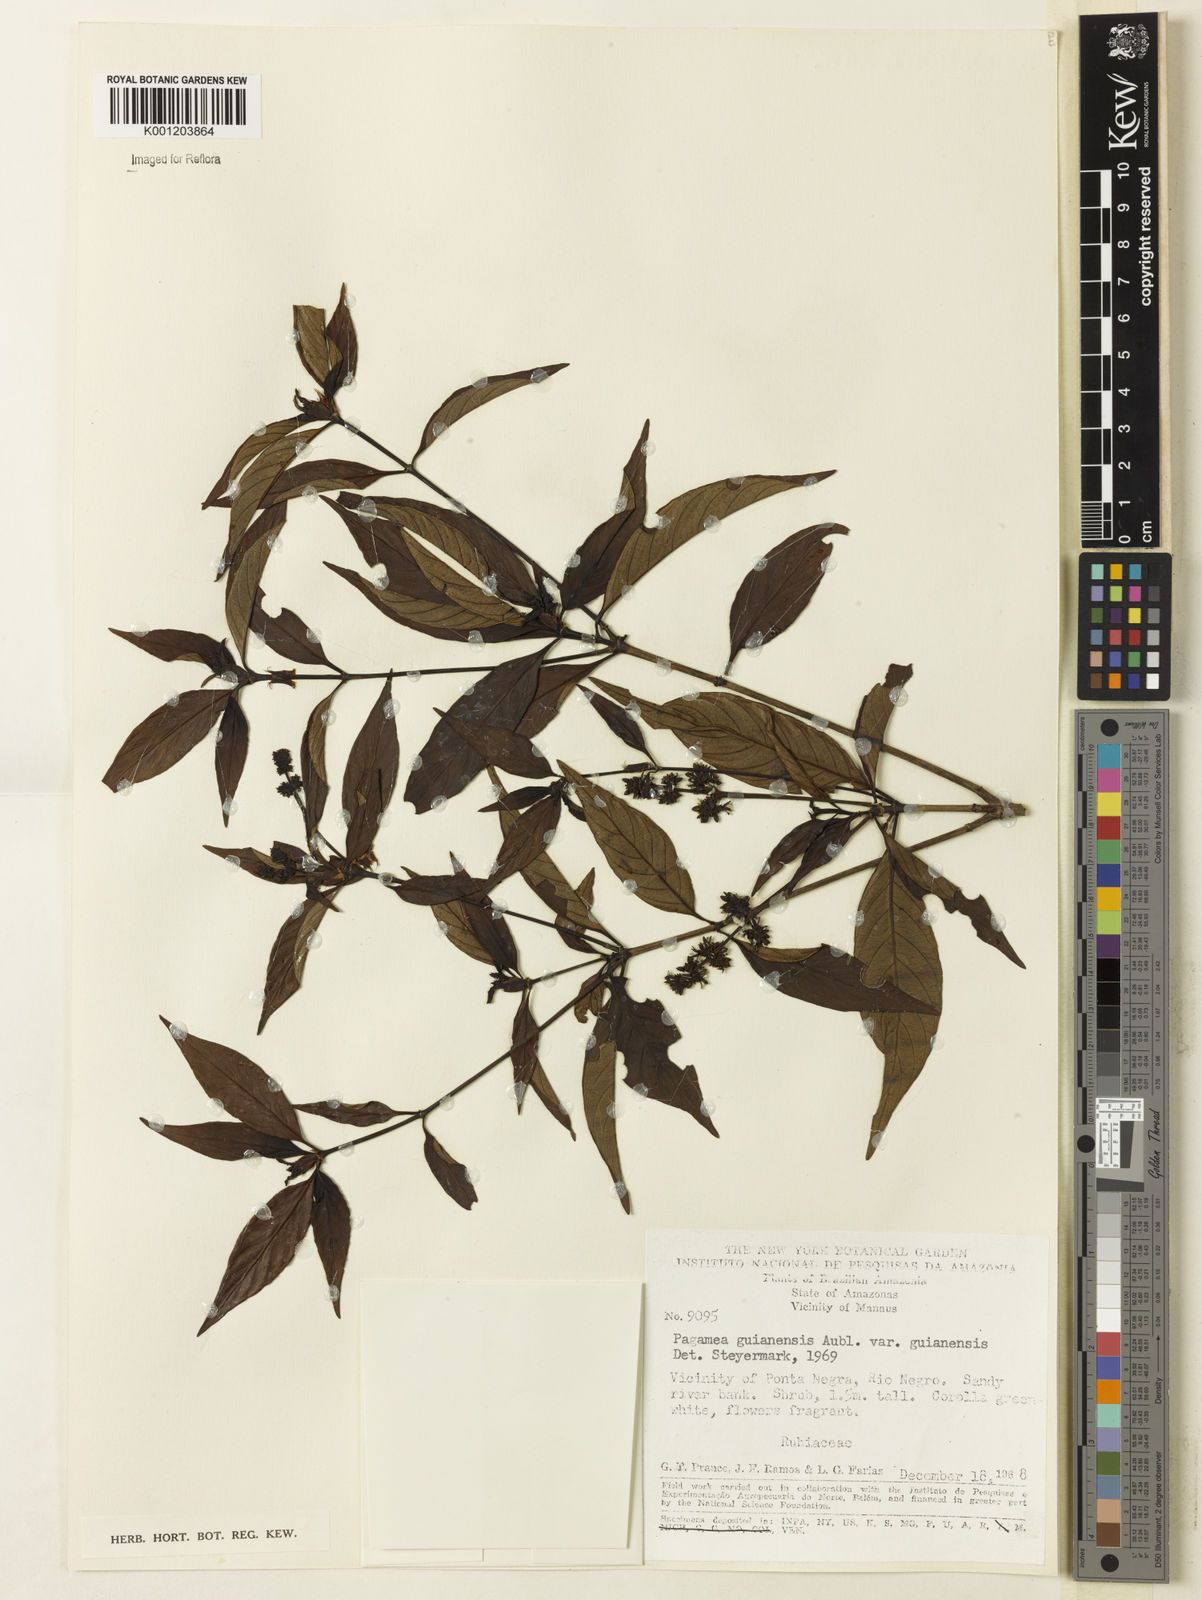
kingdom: Plantae
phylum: Tracheophyta
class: Magnoliopsida
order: Gentianales
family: Rubiaceae
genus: Pagamea
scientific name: Pagamea guianensis
